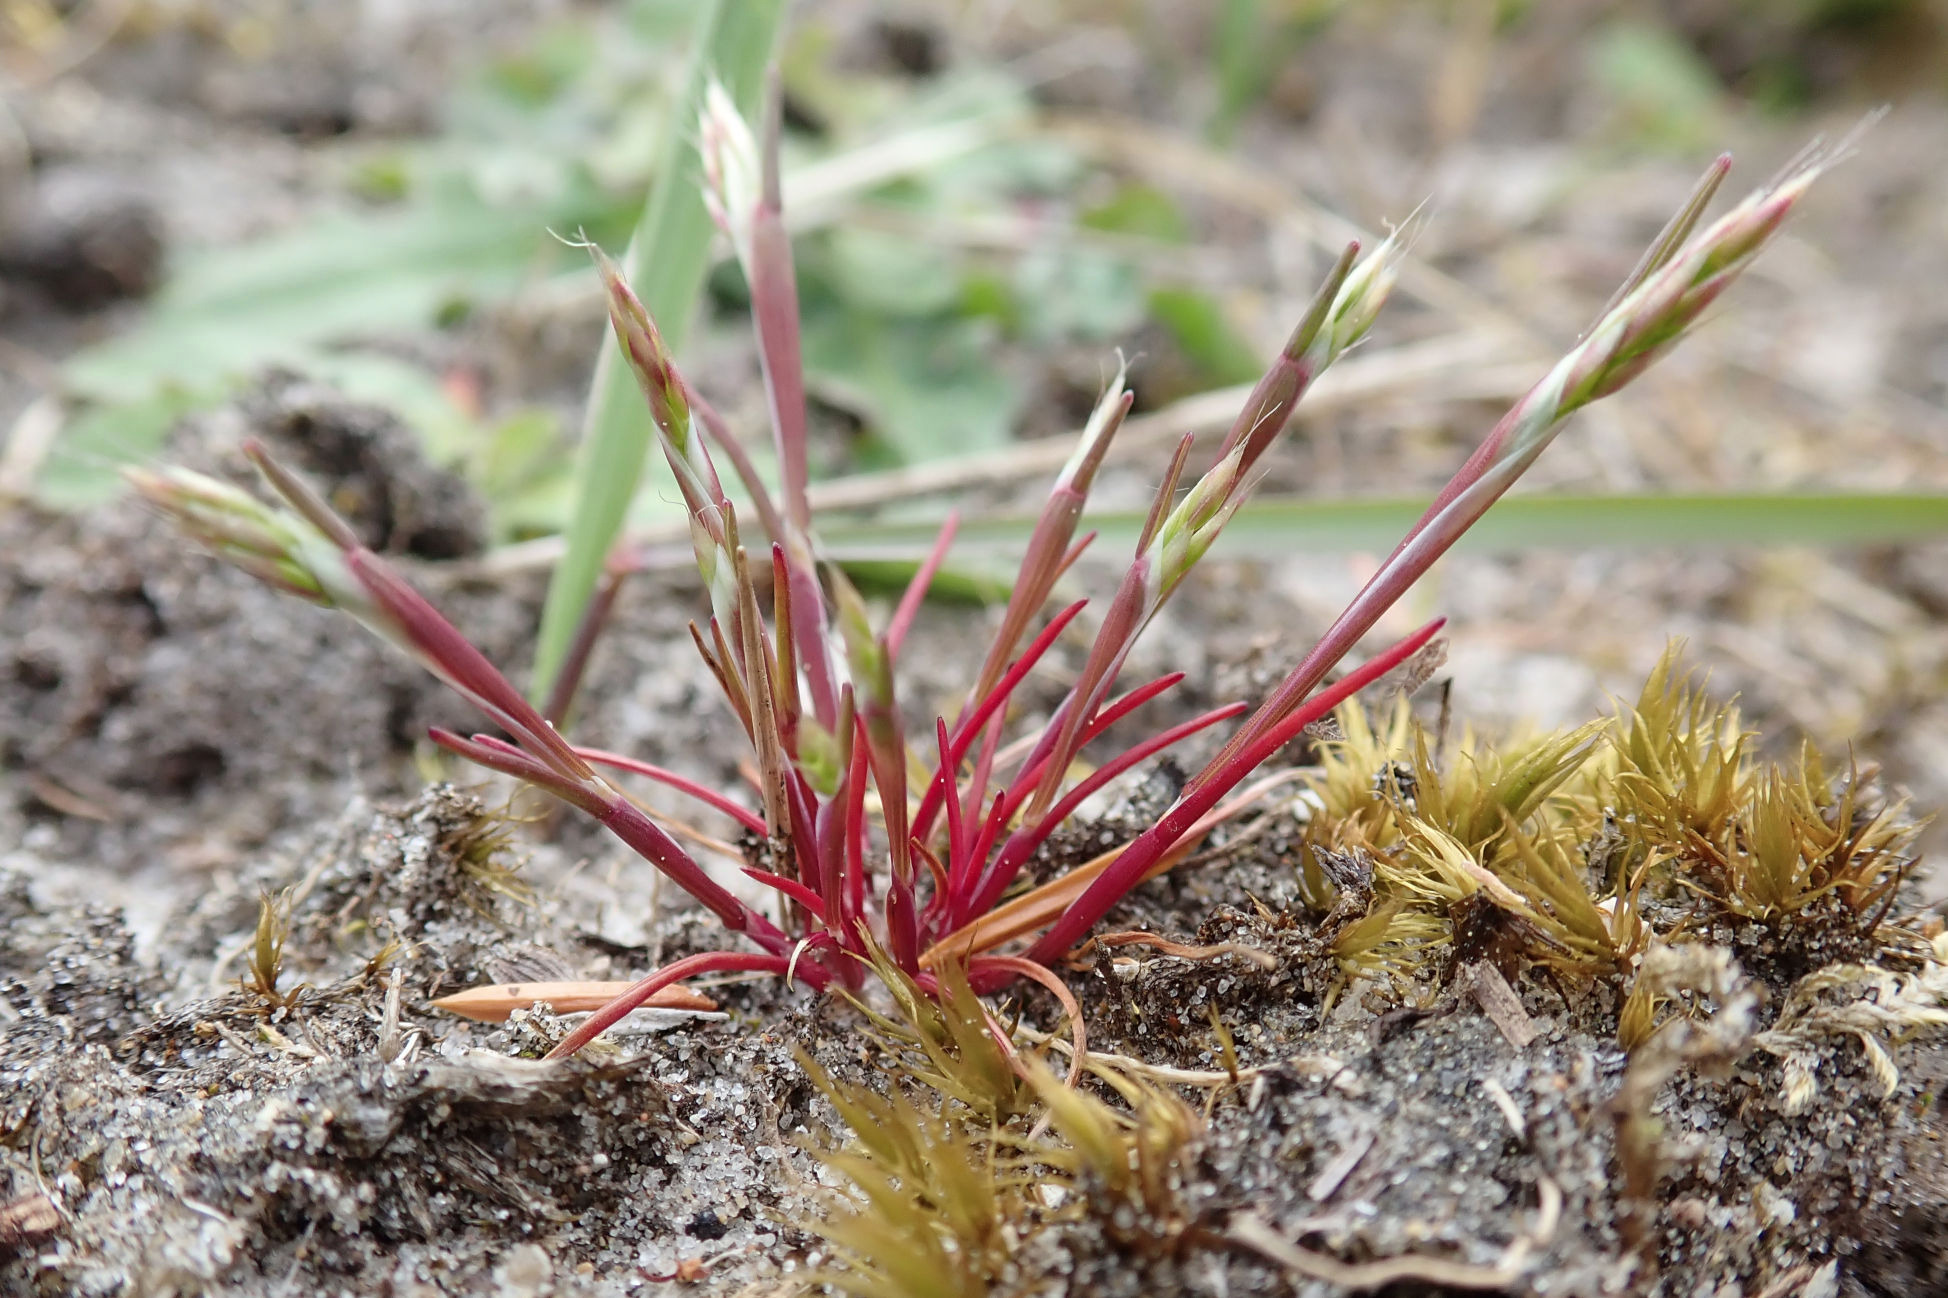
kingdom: Plantae
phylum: Tracheophyta
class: Liliopsida
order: Poales
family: Poaceae
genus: Aira
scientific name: Aira praecox
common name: Tidlig dværgbunke
